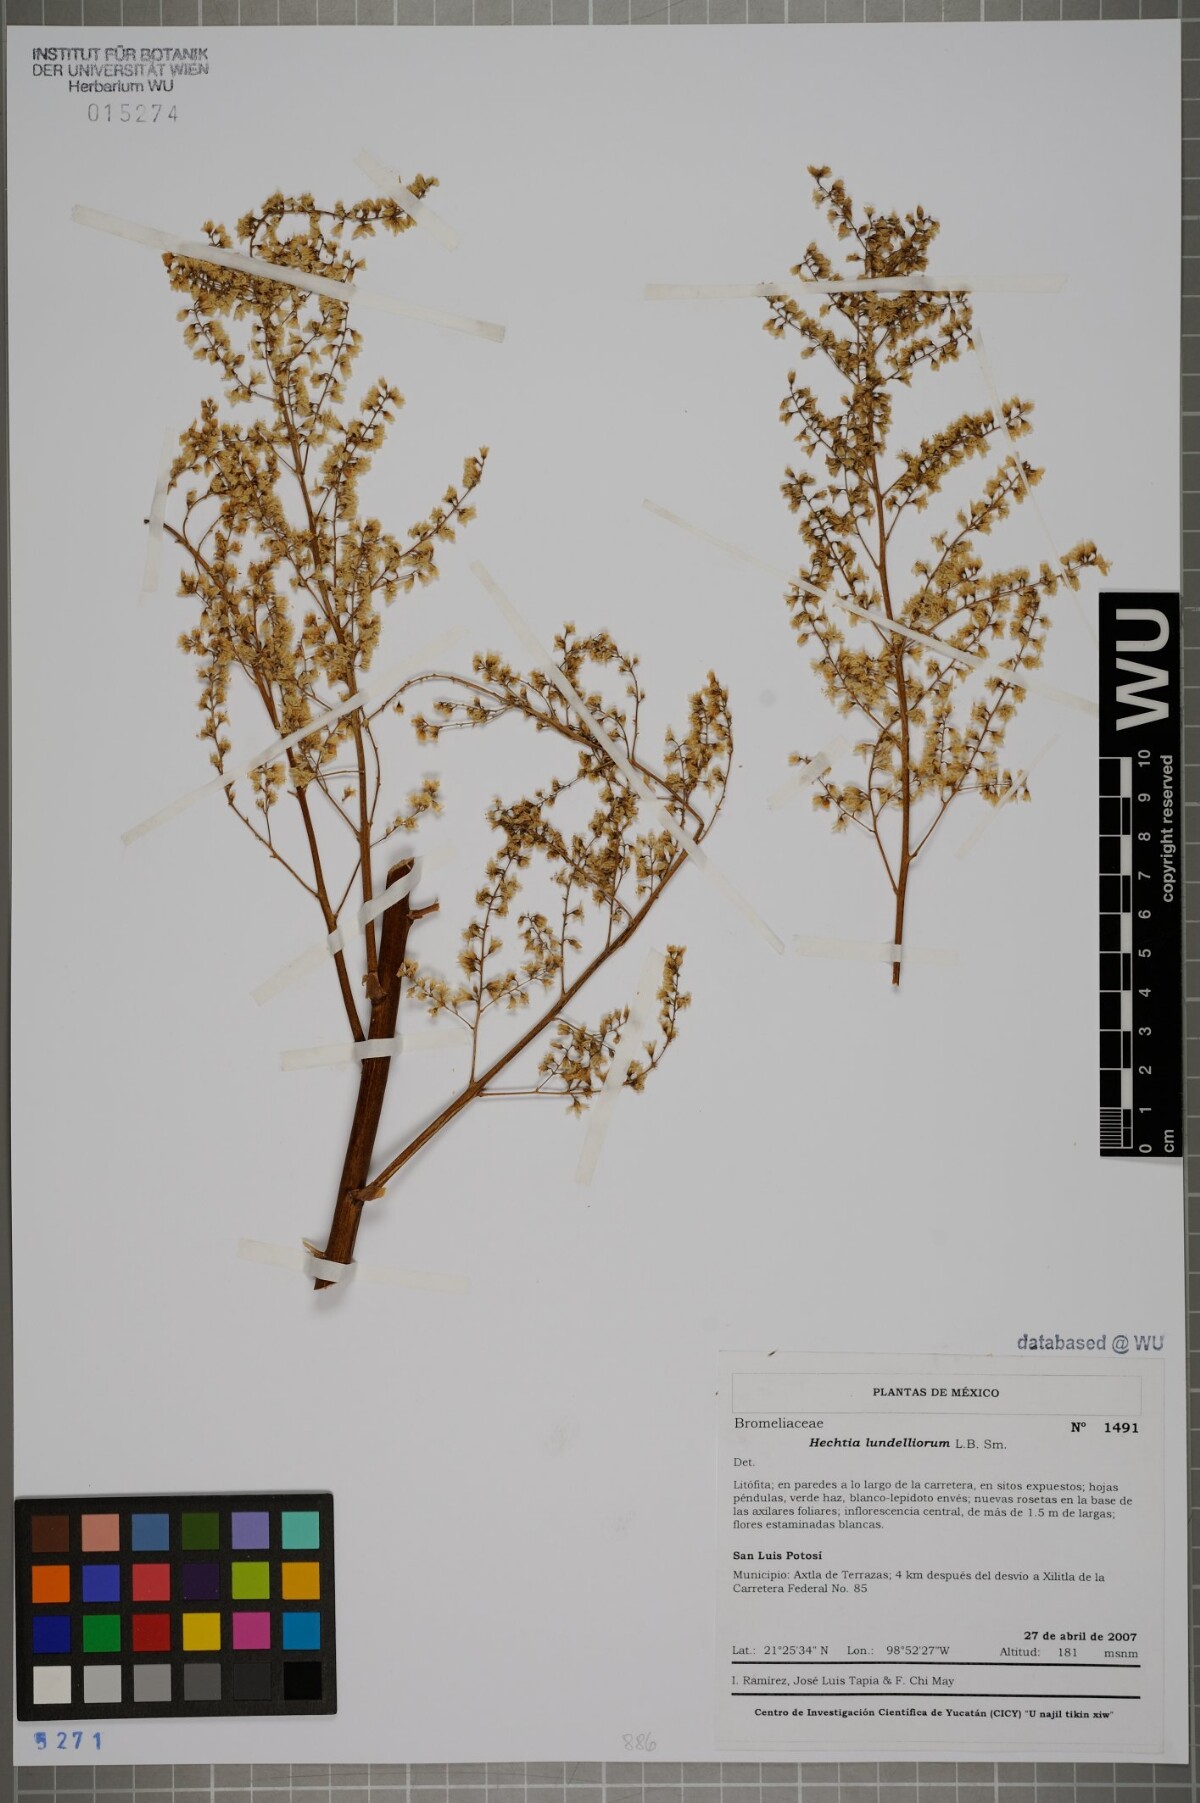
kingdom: Plantae
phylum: Tracheophyta
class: Liliopsida
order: Poales
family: Bromeliaceae
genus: Hechtia
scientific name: Hechtia lundelliorum
